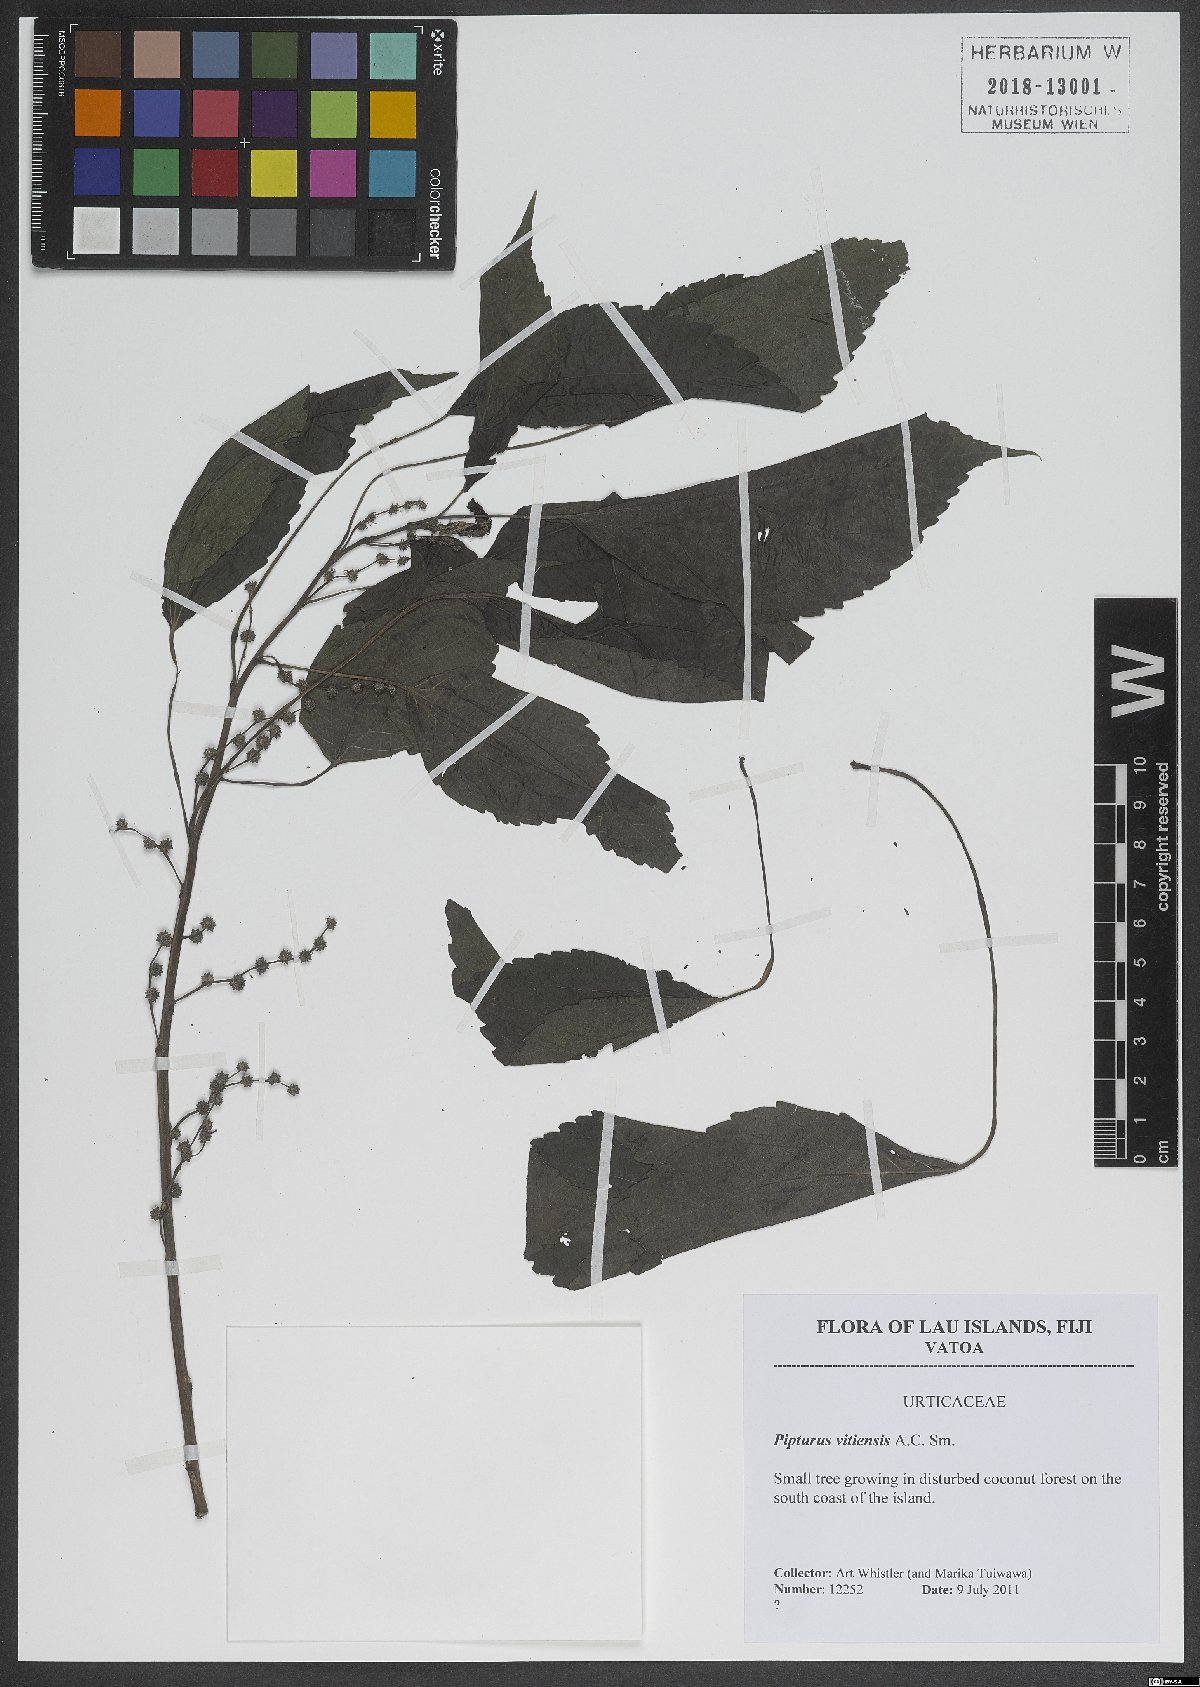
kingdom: Plantae
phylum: Tracheophyta
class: Magnoliopsida
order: Rosales
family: Urticaceae
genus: Pipturus
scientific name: Pipturus vitiensis
